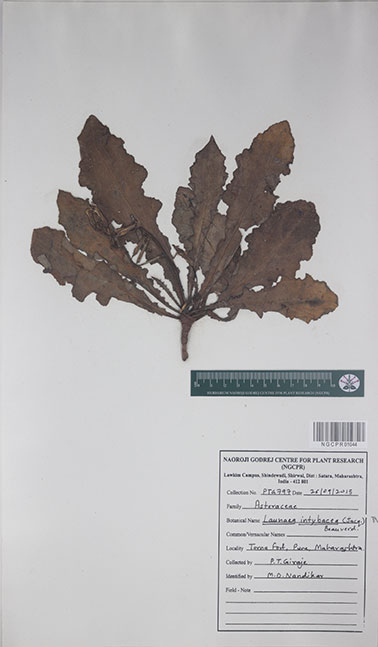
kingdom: Plantae
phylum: Tracheophyta
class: Magnoliopsida
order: Asterales
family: Asteraceae
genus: Launaea
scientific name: Launaea intybacea
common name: Achicoria azul
